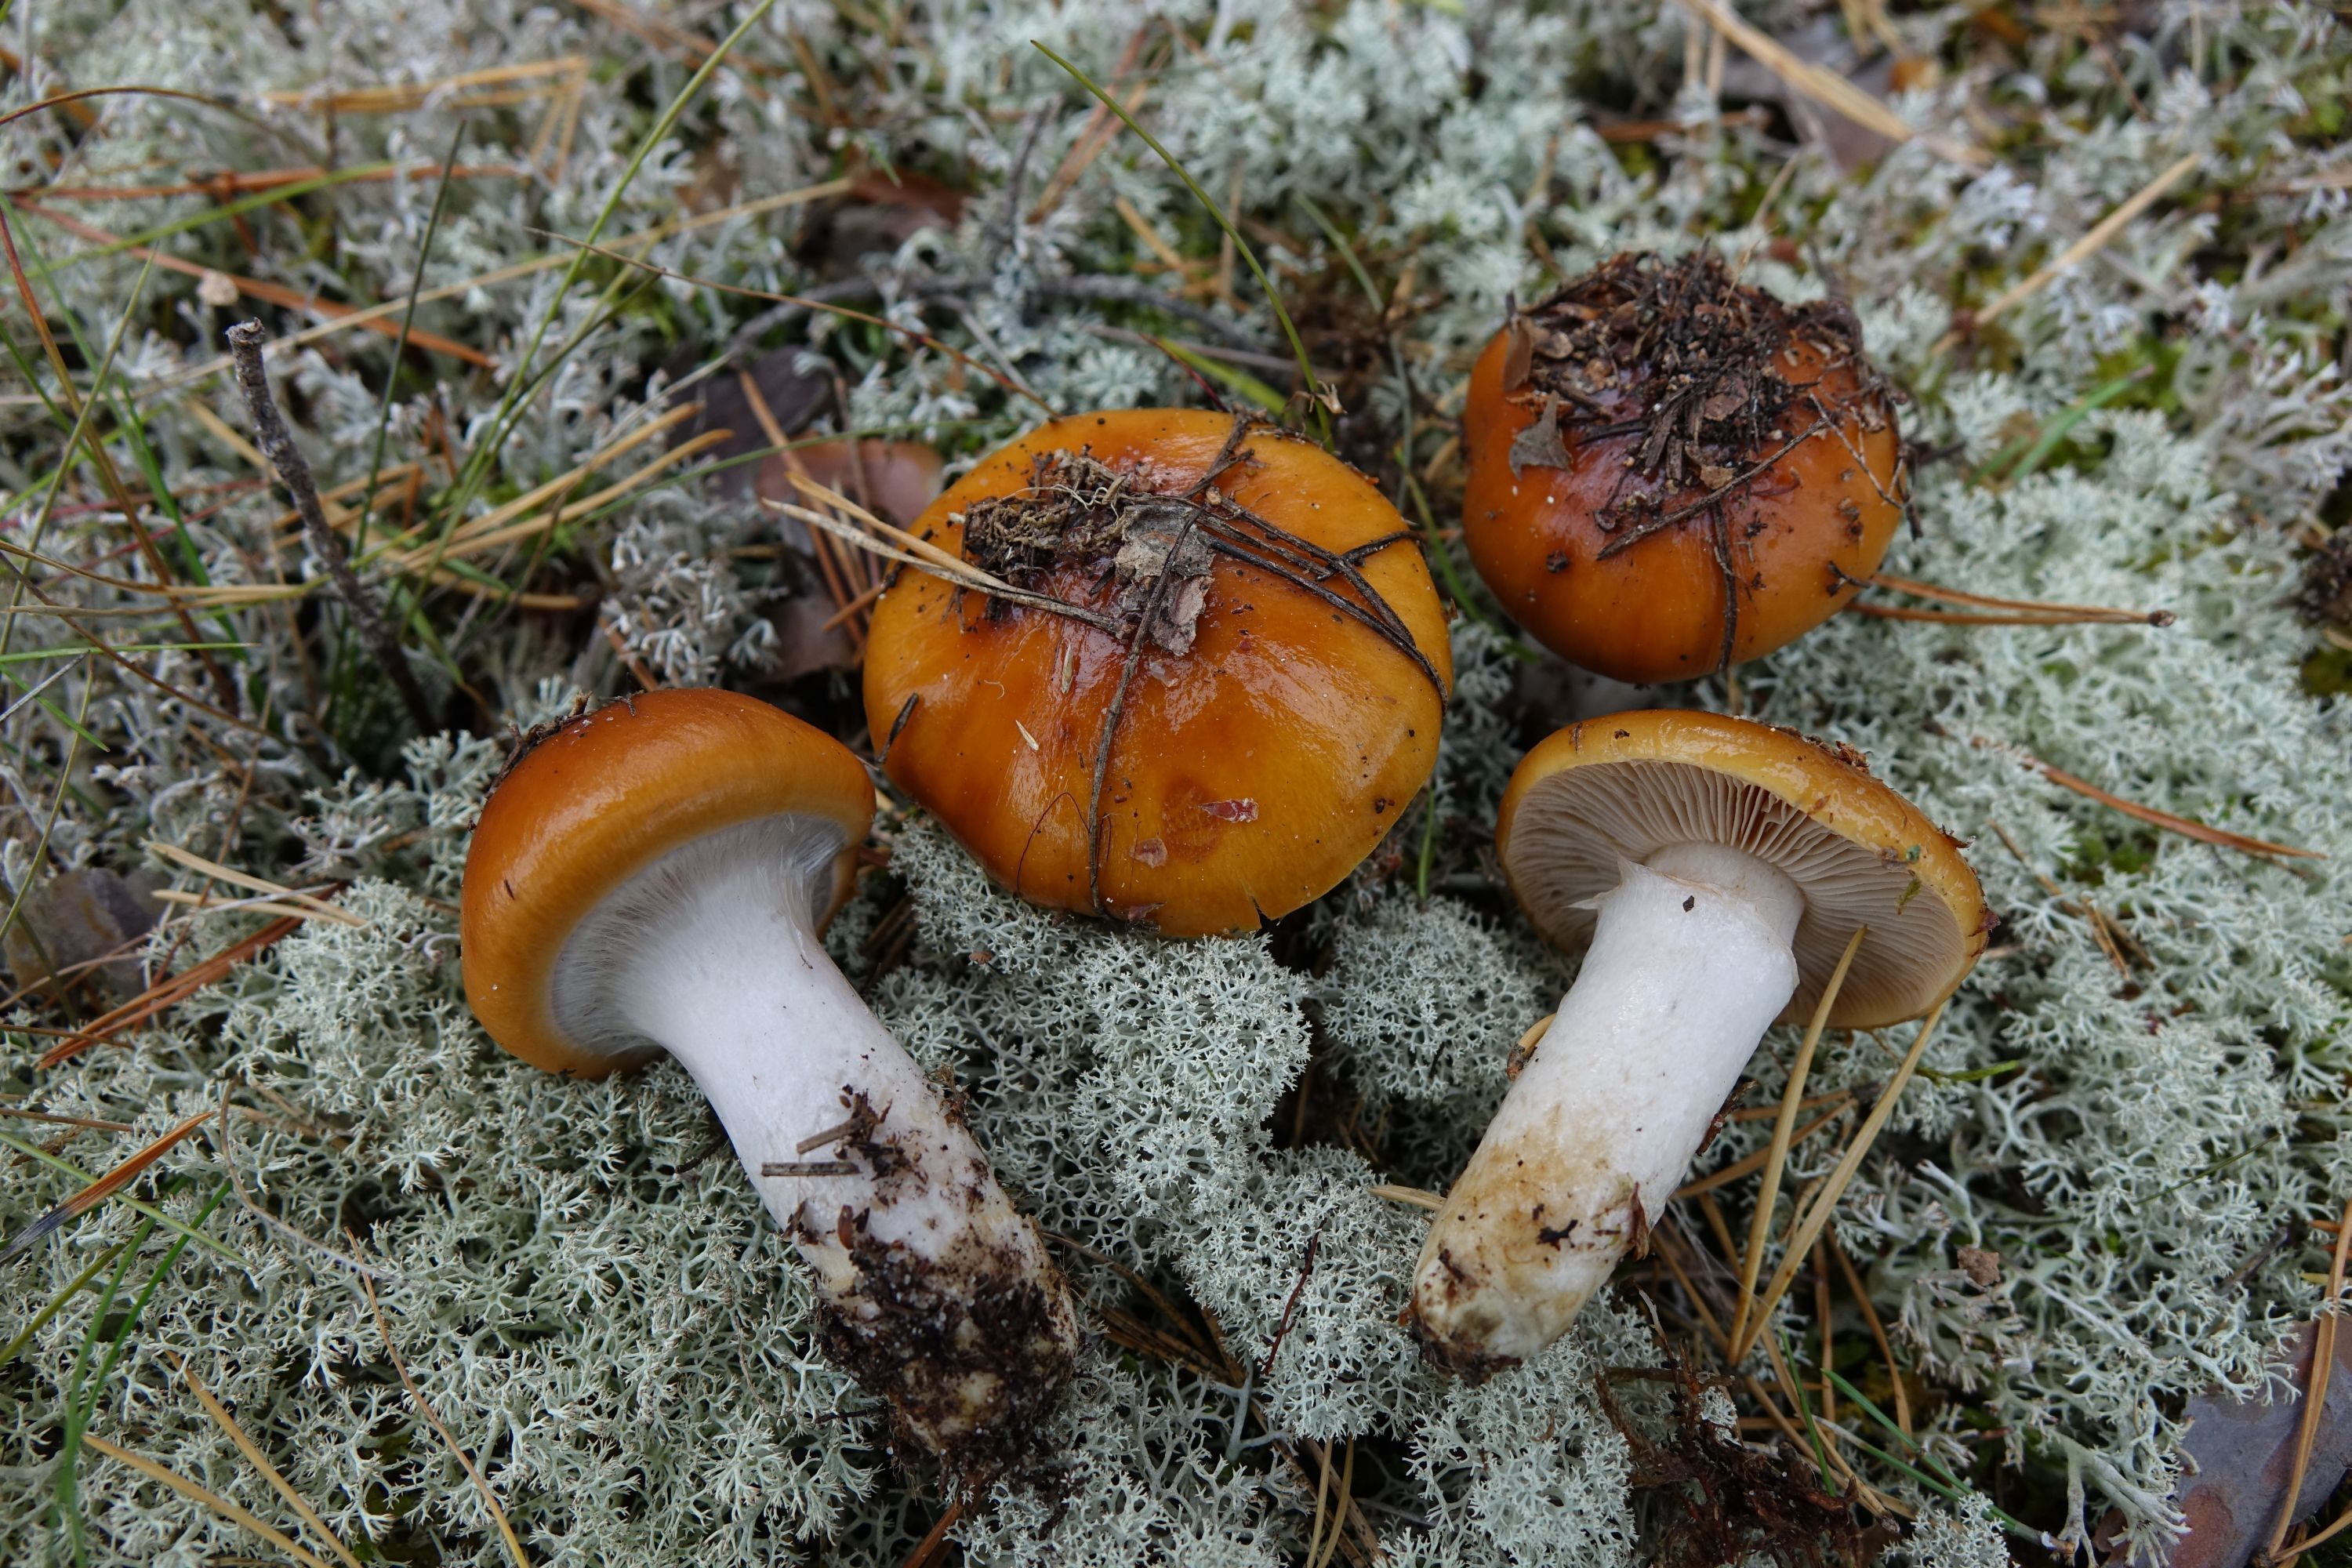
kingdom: Fungi
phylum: Basidiomycota
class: Agaricomycetes
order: Agaricales
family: Cortinariaceae
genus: Cortinarius
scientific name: Cortinarius mucosus
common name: Orange webcap
